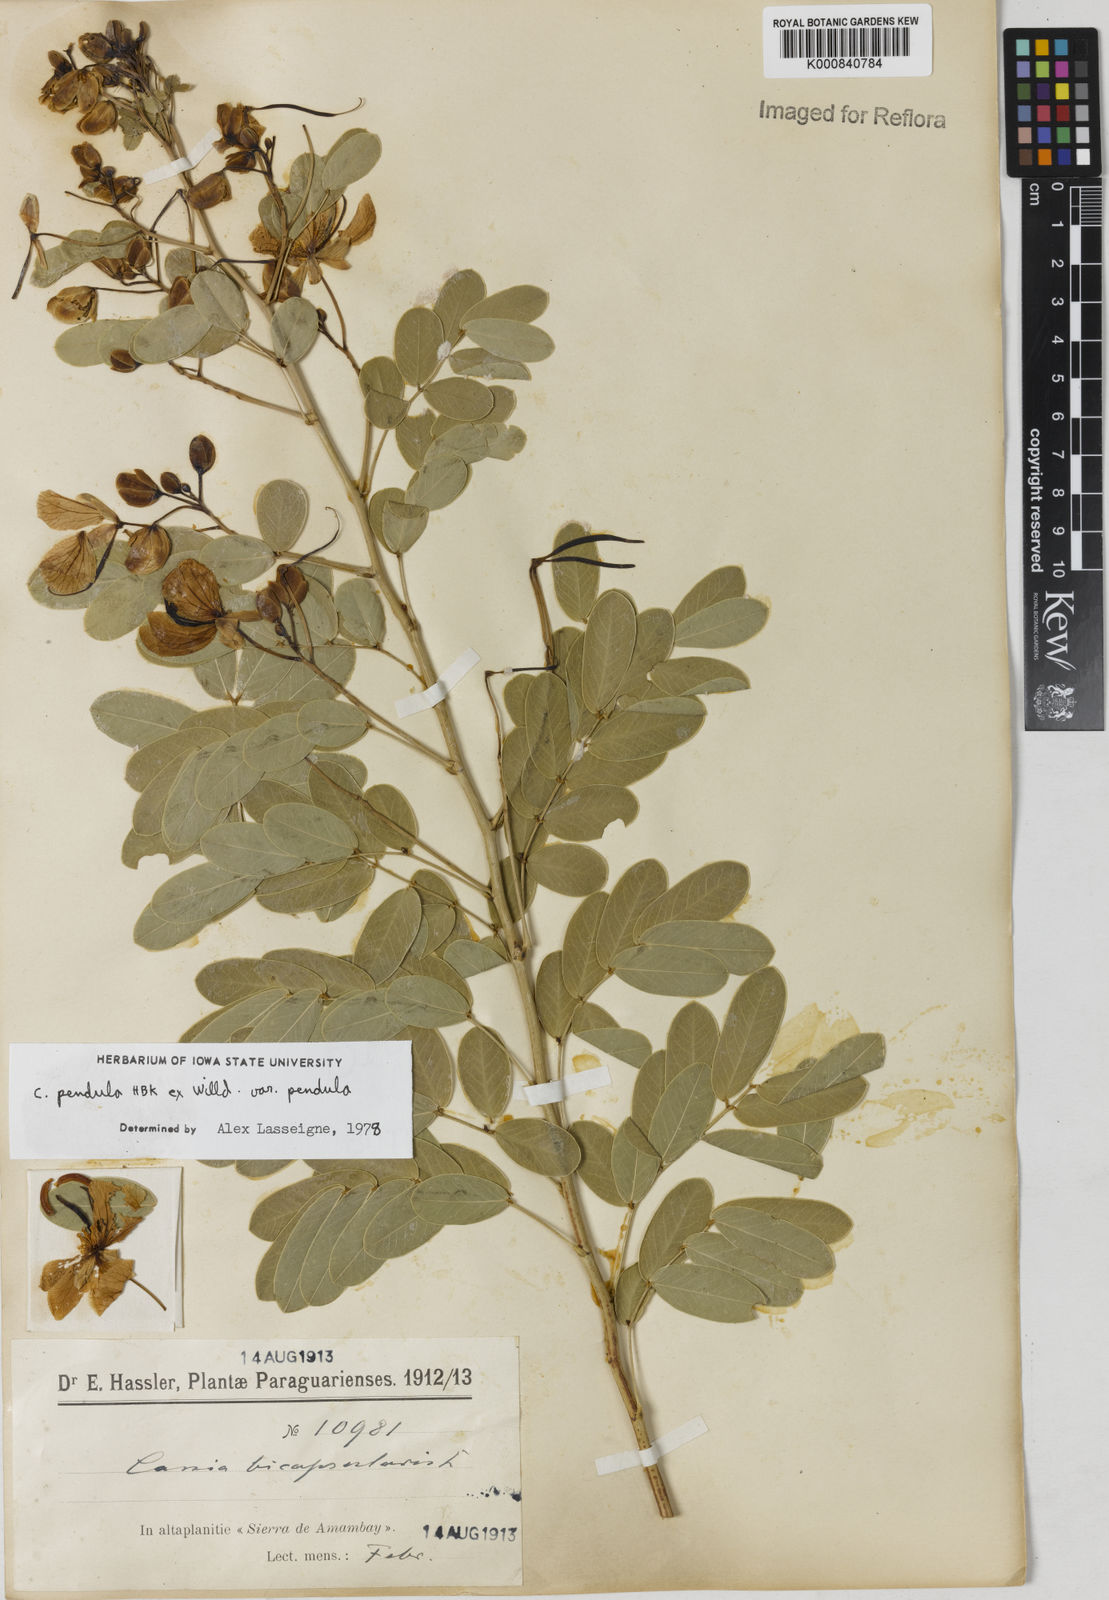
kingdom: Plantae
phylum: Tracheophyta
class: Magnoliopsida
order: Fabales
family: Fabaceae
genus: Senna
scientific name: Senna pendula
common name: Easter cassia
